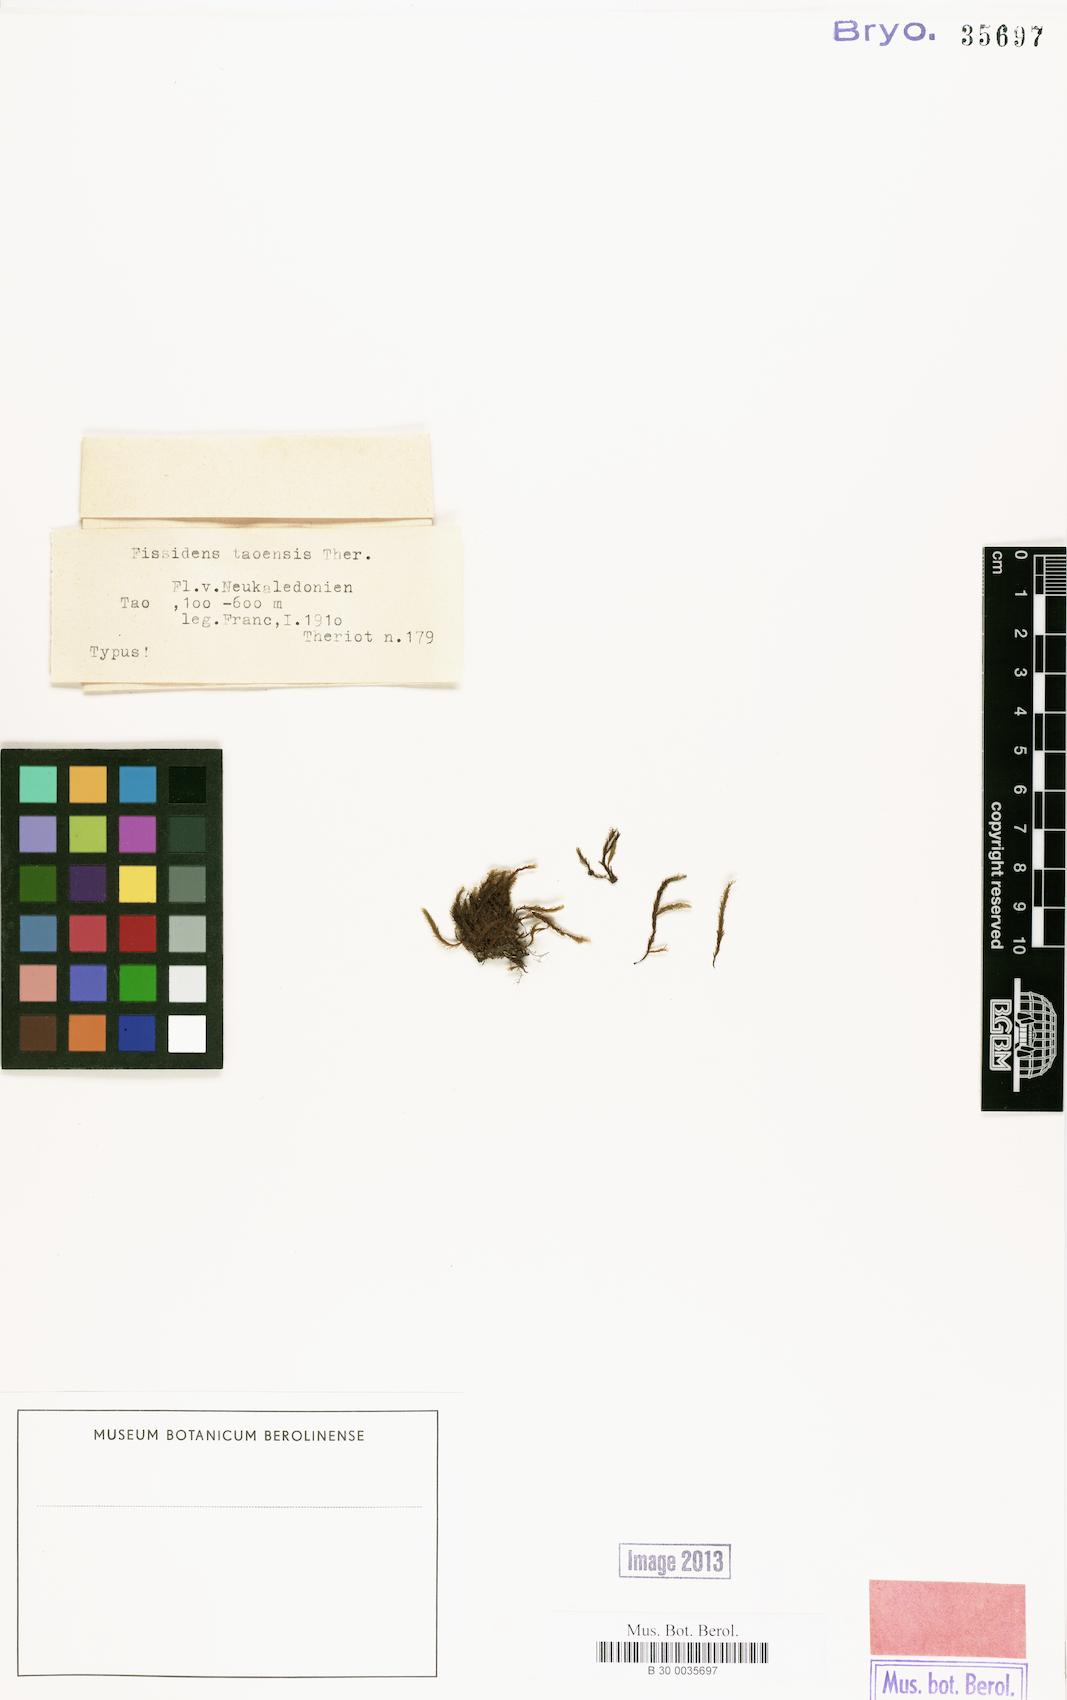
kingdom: Plantae
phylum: Bryophyta
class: Bryopsida
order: Dicranales
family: Fissidentaceae
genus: Fissidens
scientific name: Fissidens pallidus
